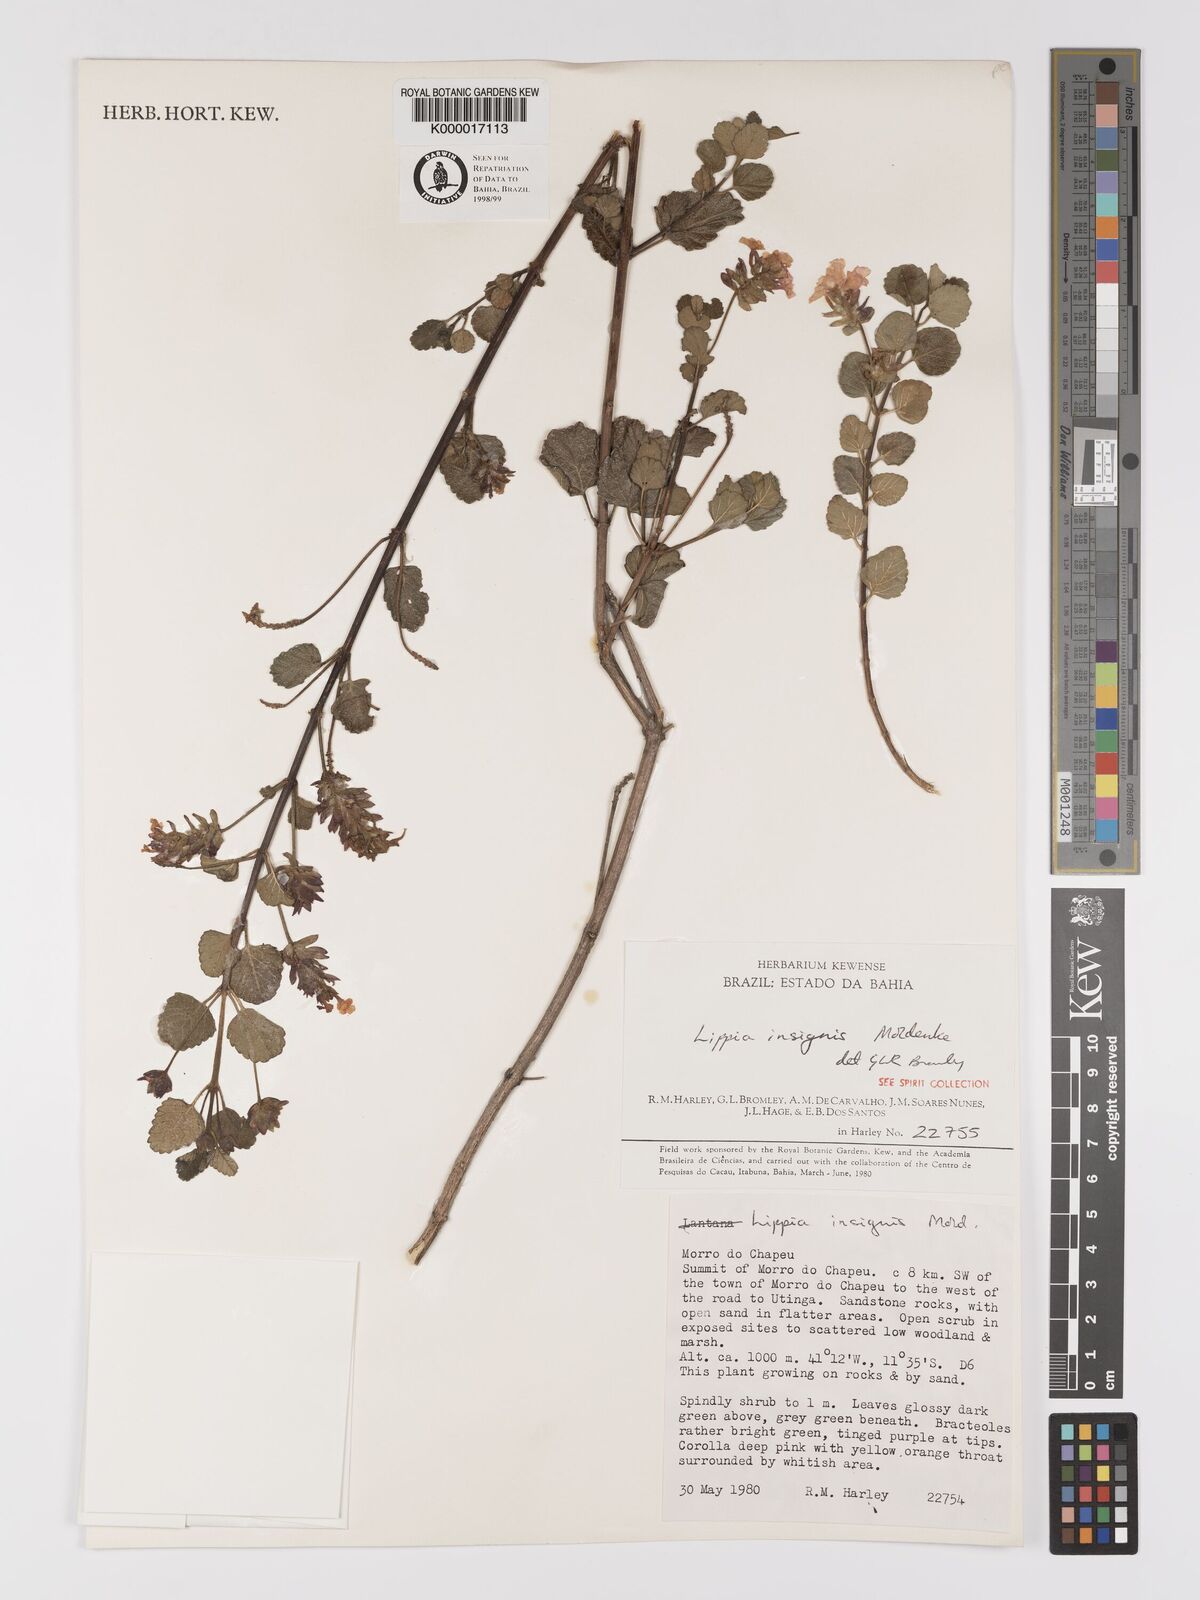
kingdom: Plantae
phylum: Tracheophyta
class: Magnoliopsida
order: Lamiales
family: Verbenaceae
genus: Lippia
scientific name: Lippia insignis
